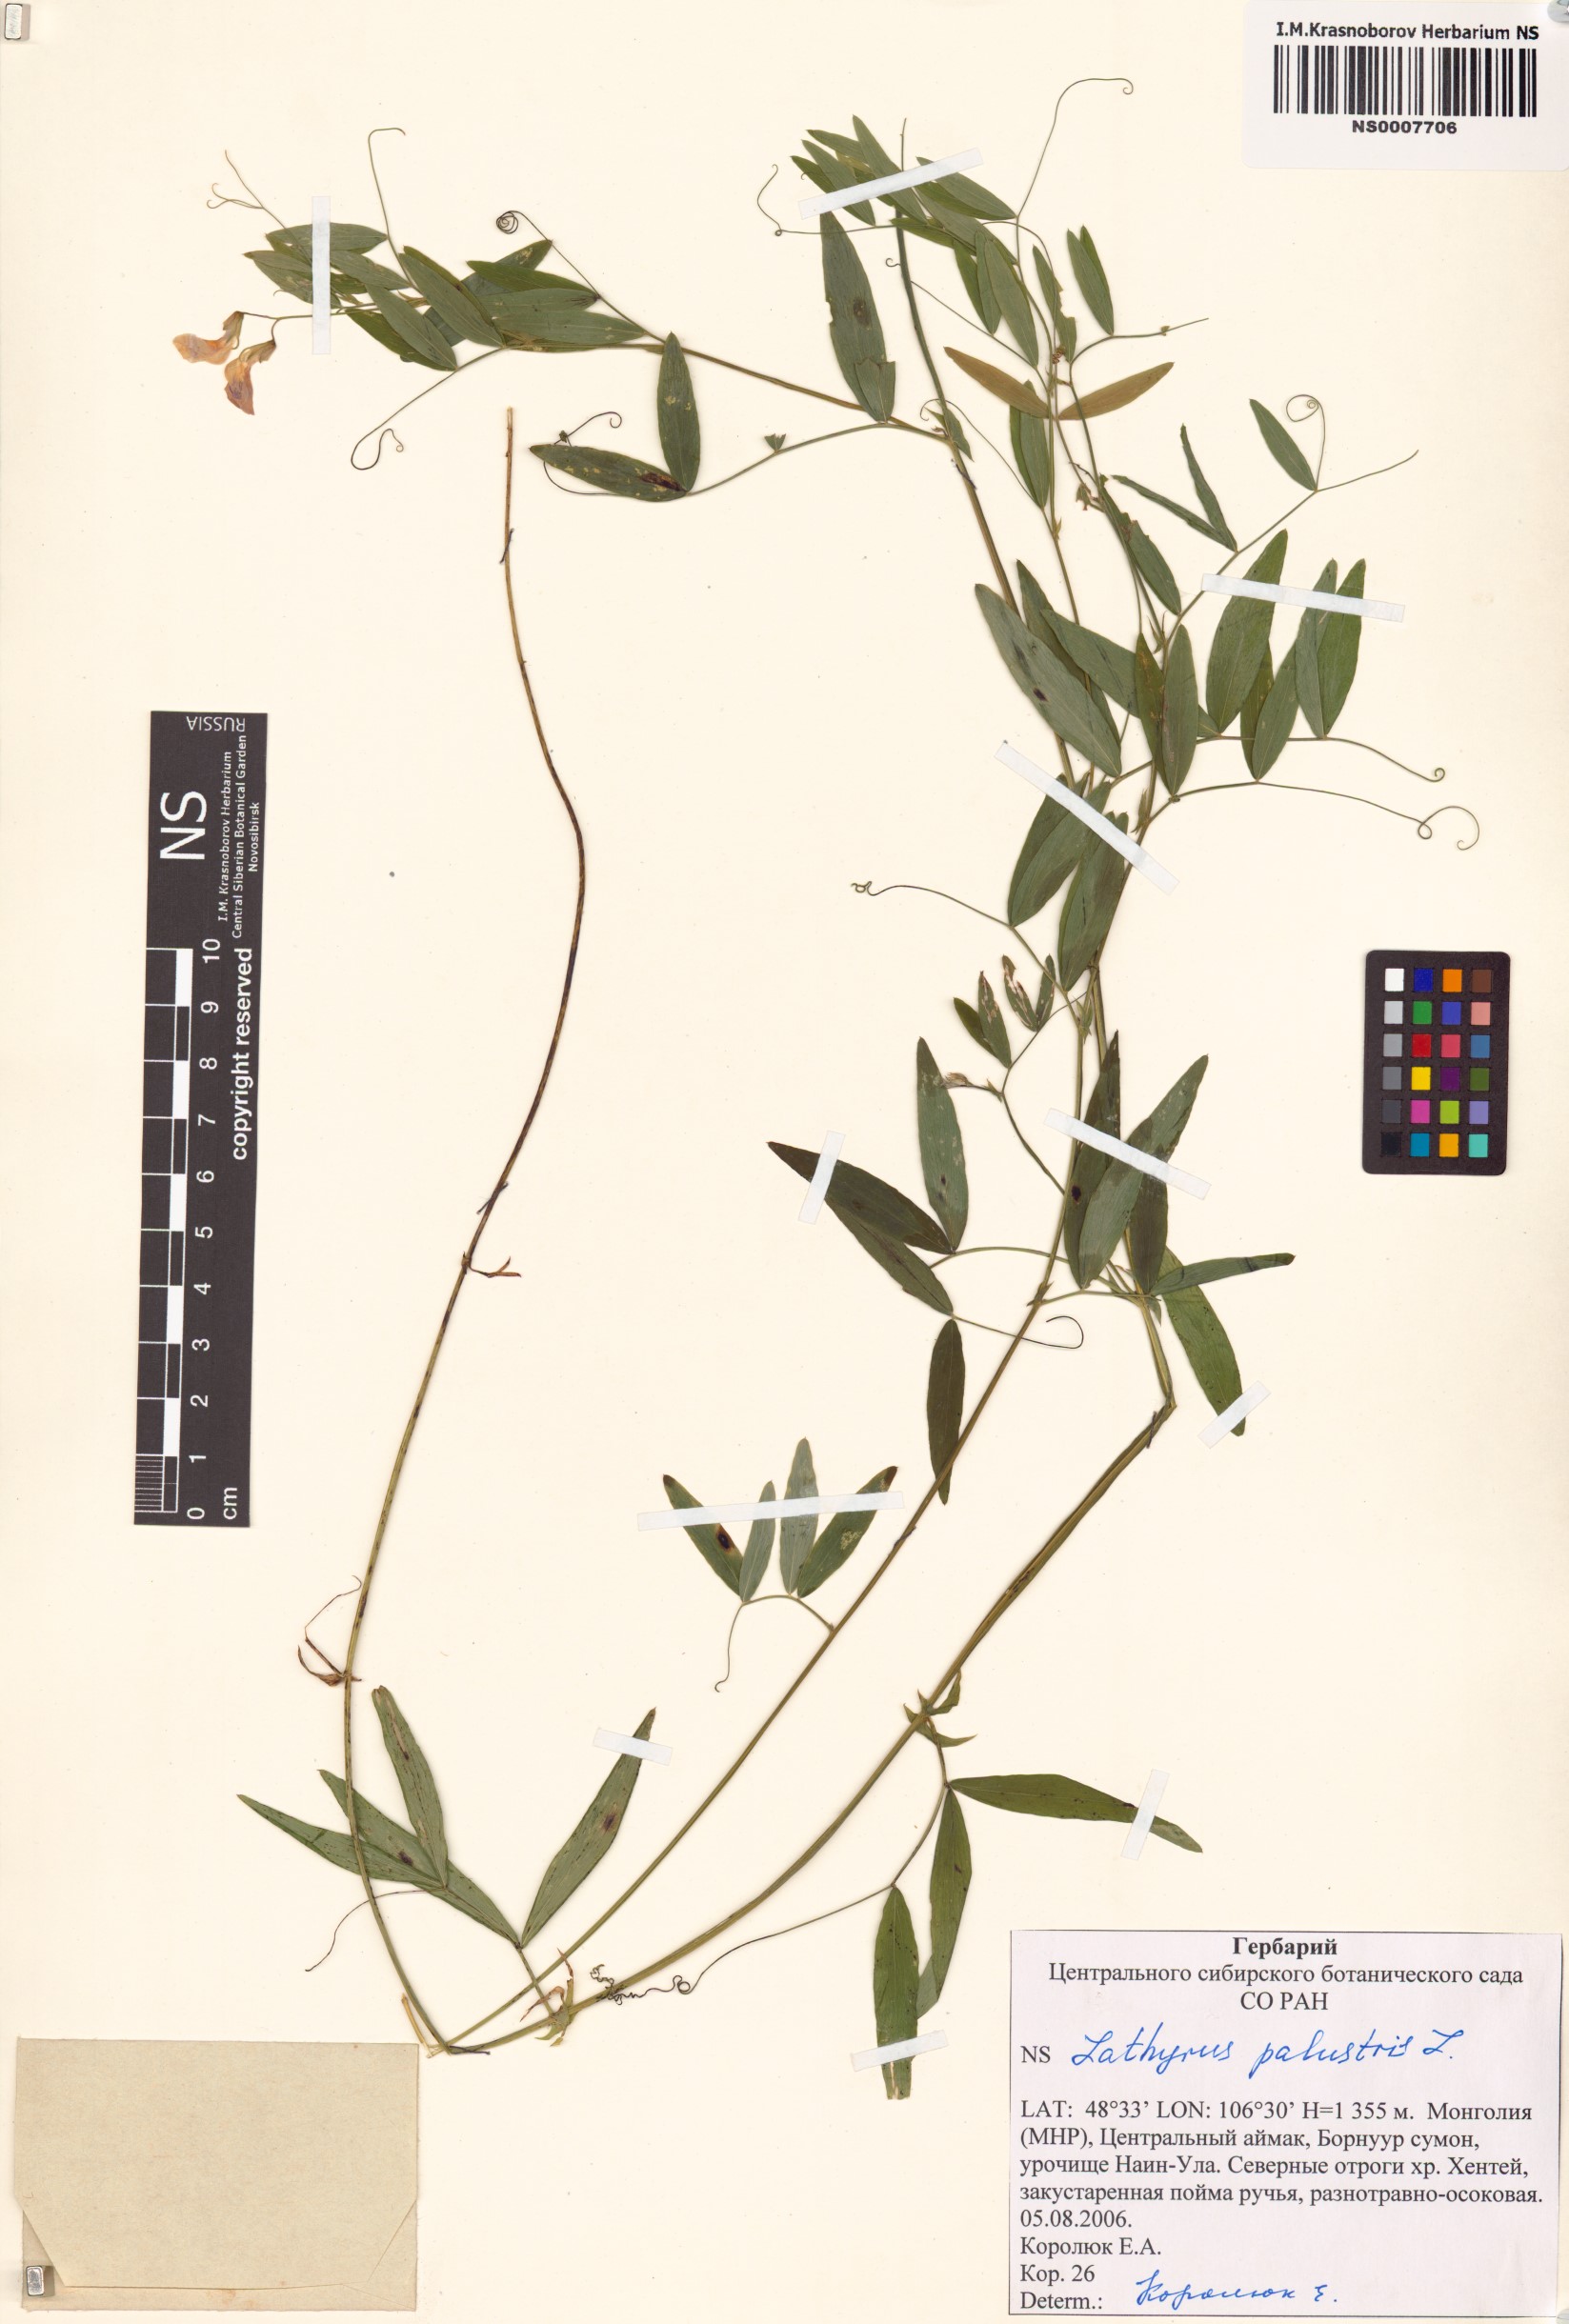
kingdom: Plantae
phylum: Tracheophyta
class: Magnoliopsida
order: Fabales
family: Fabaceae
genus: Lathyrus
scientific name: Lathyrus palustris
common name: Marsh pea
